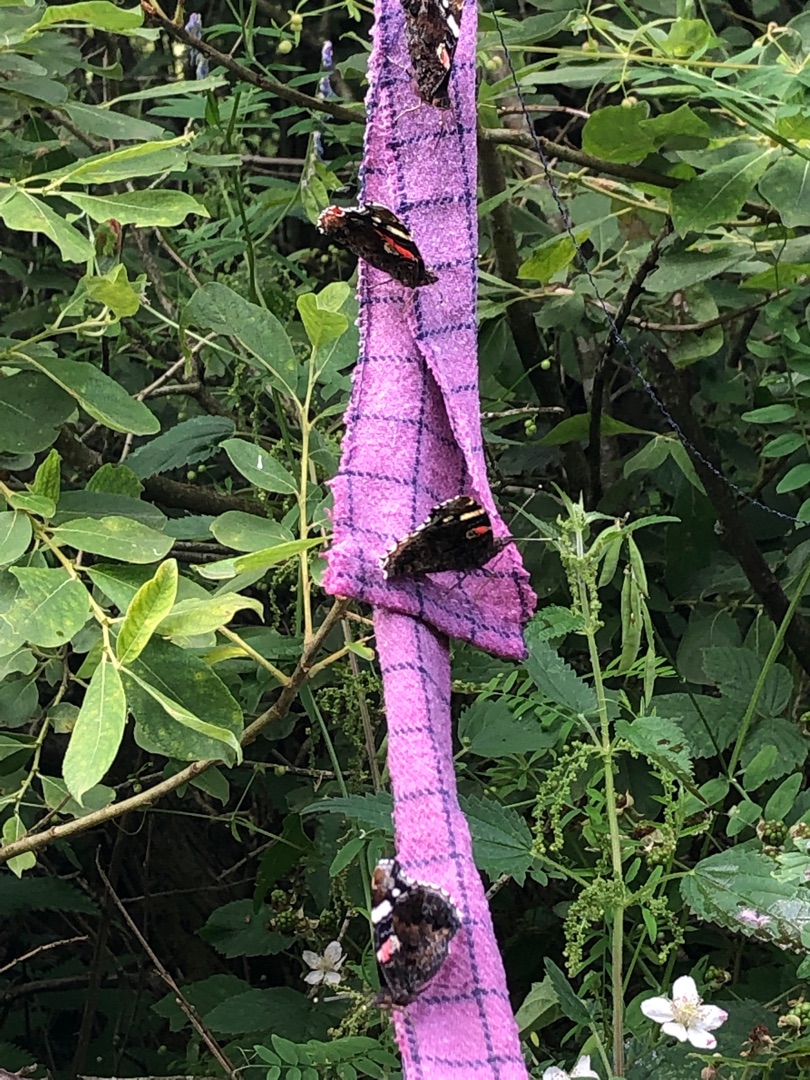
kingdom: Animalia
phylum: Arthropoda
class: Insecta
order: Lepidoptera
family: Nymphalidae
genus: Vanessa
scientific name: Vanessa atalanta
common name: Admiral
